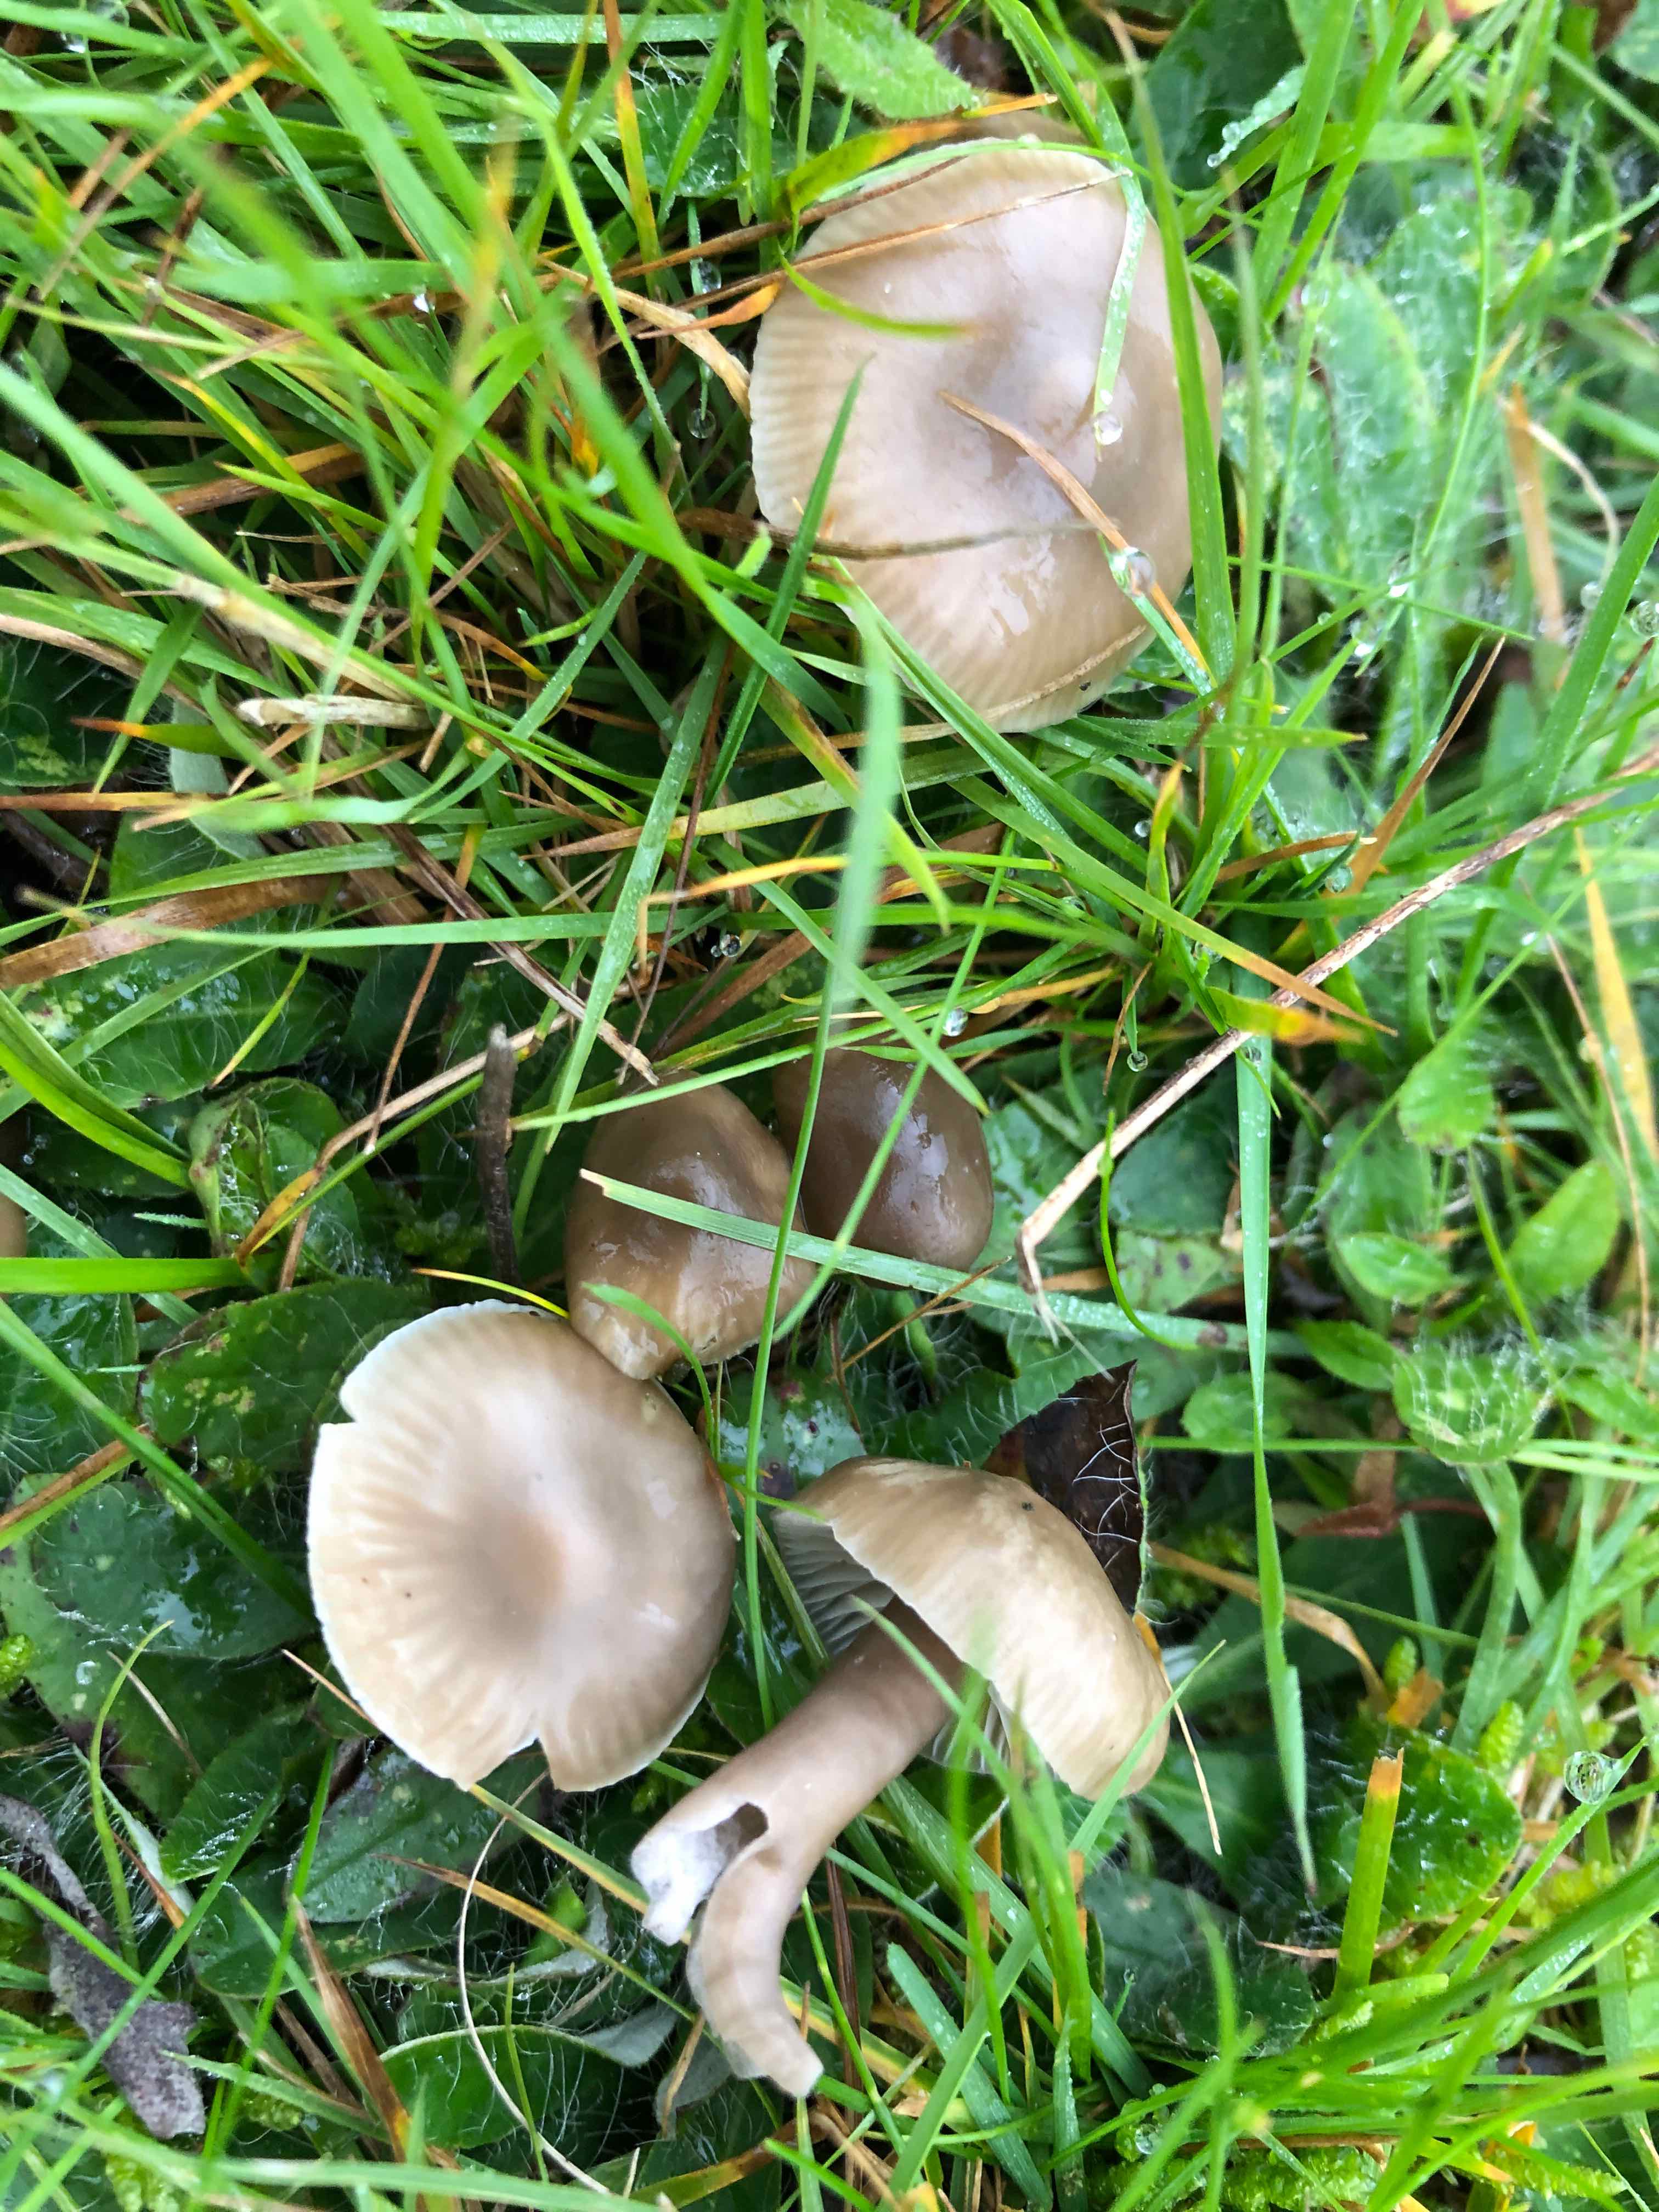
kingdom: Fungi
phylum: Basidiomycota
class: Agaricomycetes
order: Agaricales
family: Hygrophoraceae
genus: Gliophorus
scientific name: Gliophorus irrigatus
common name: slimet vokshat
